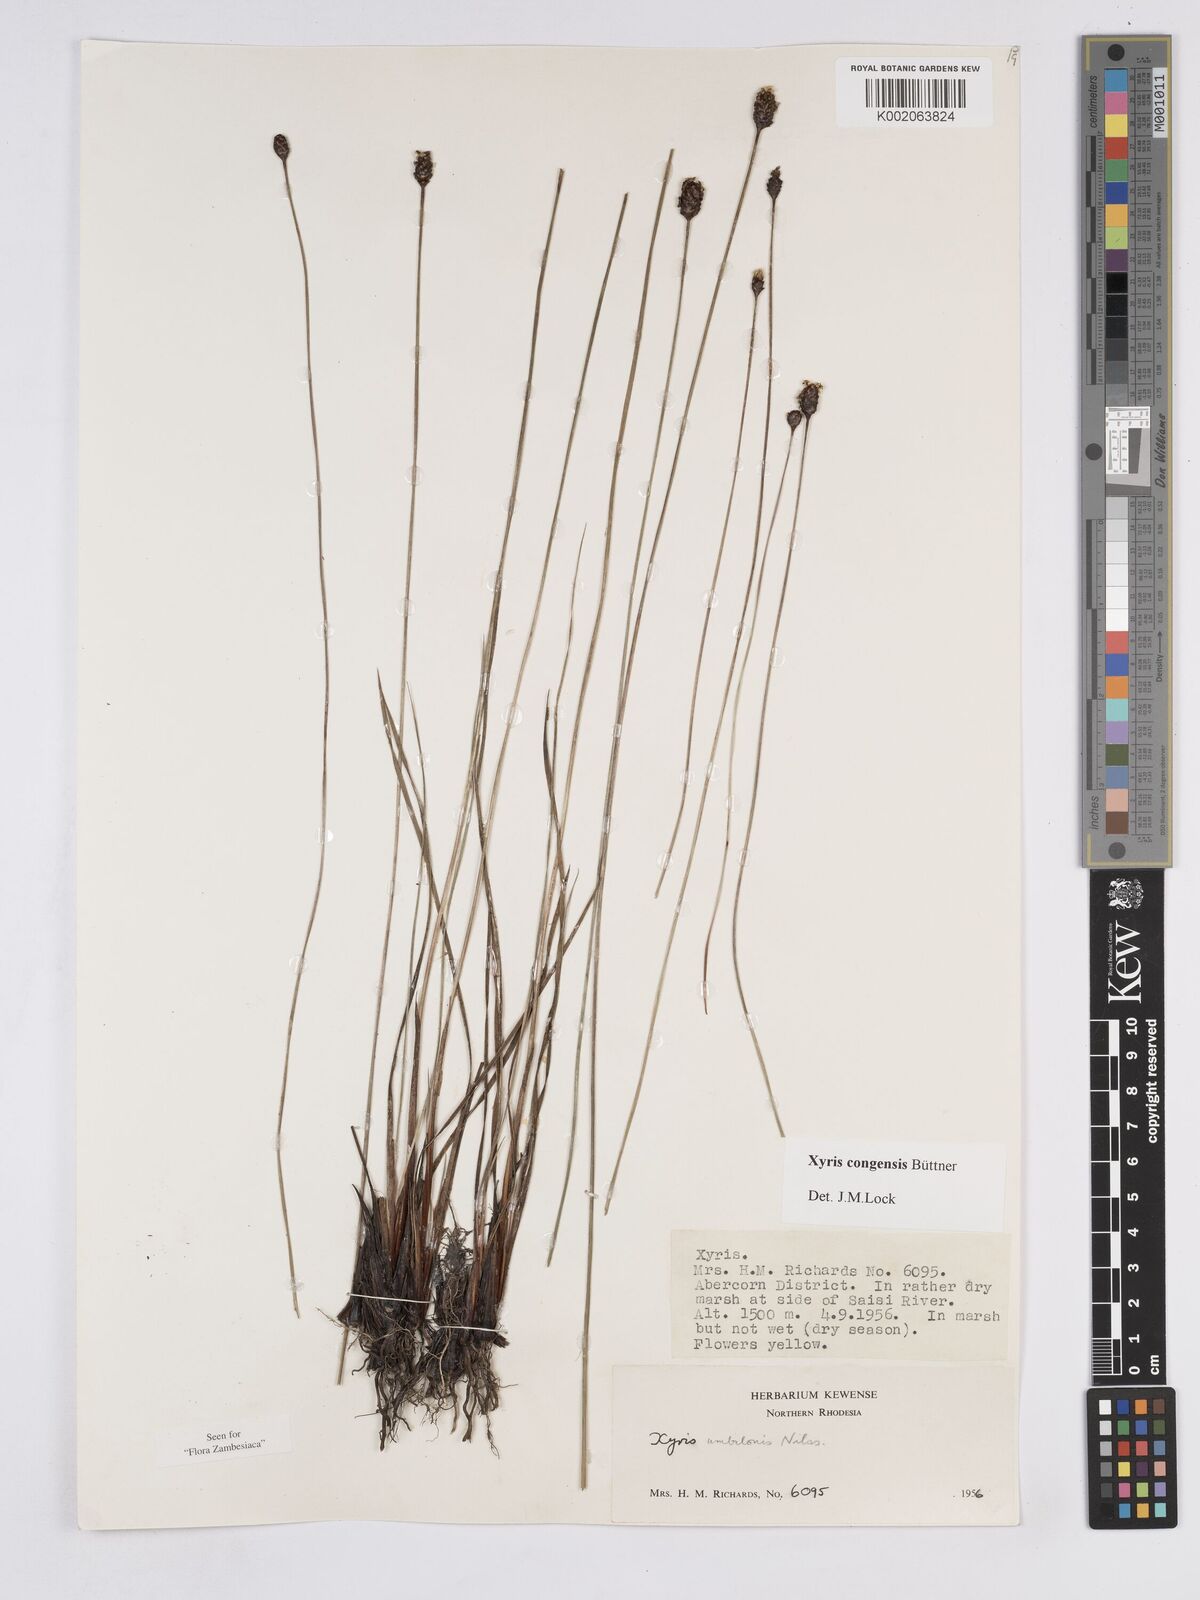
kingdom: Plantae
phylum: Tracheophyta
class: Liliopsida
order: Poales
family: Xyridaceae
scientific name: Xyridaceae
